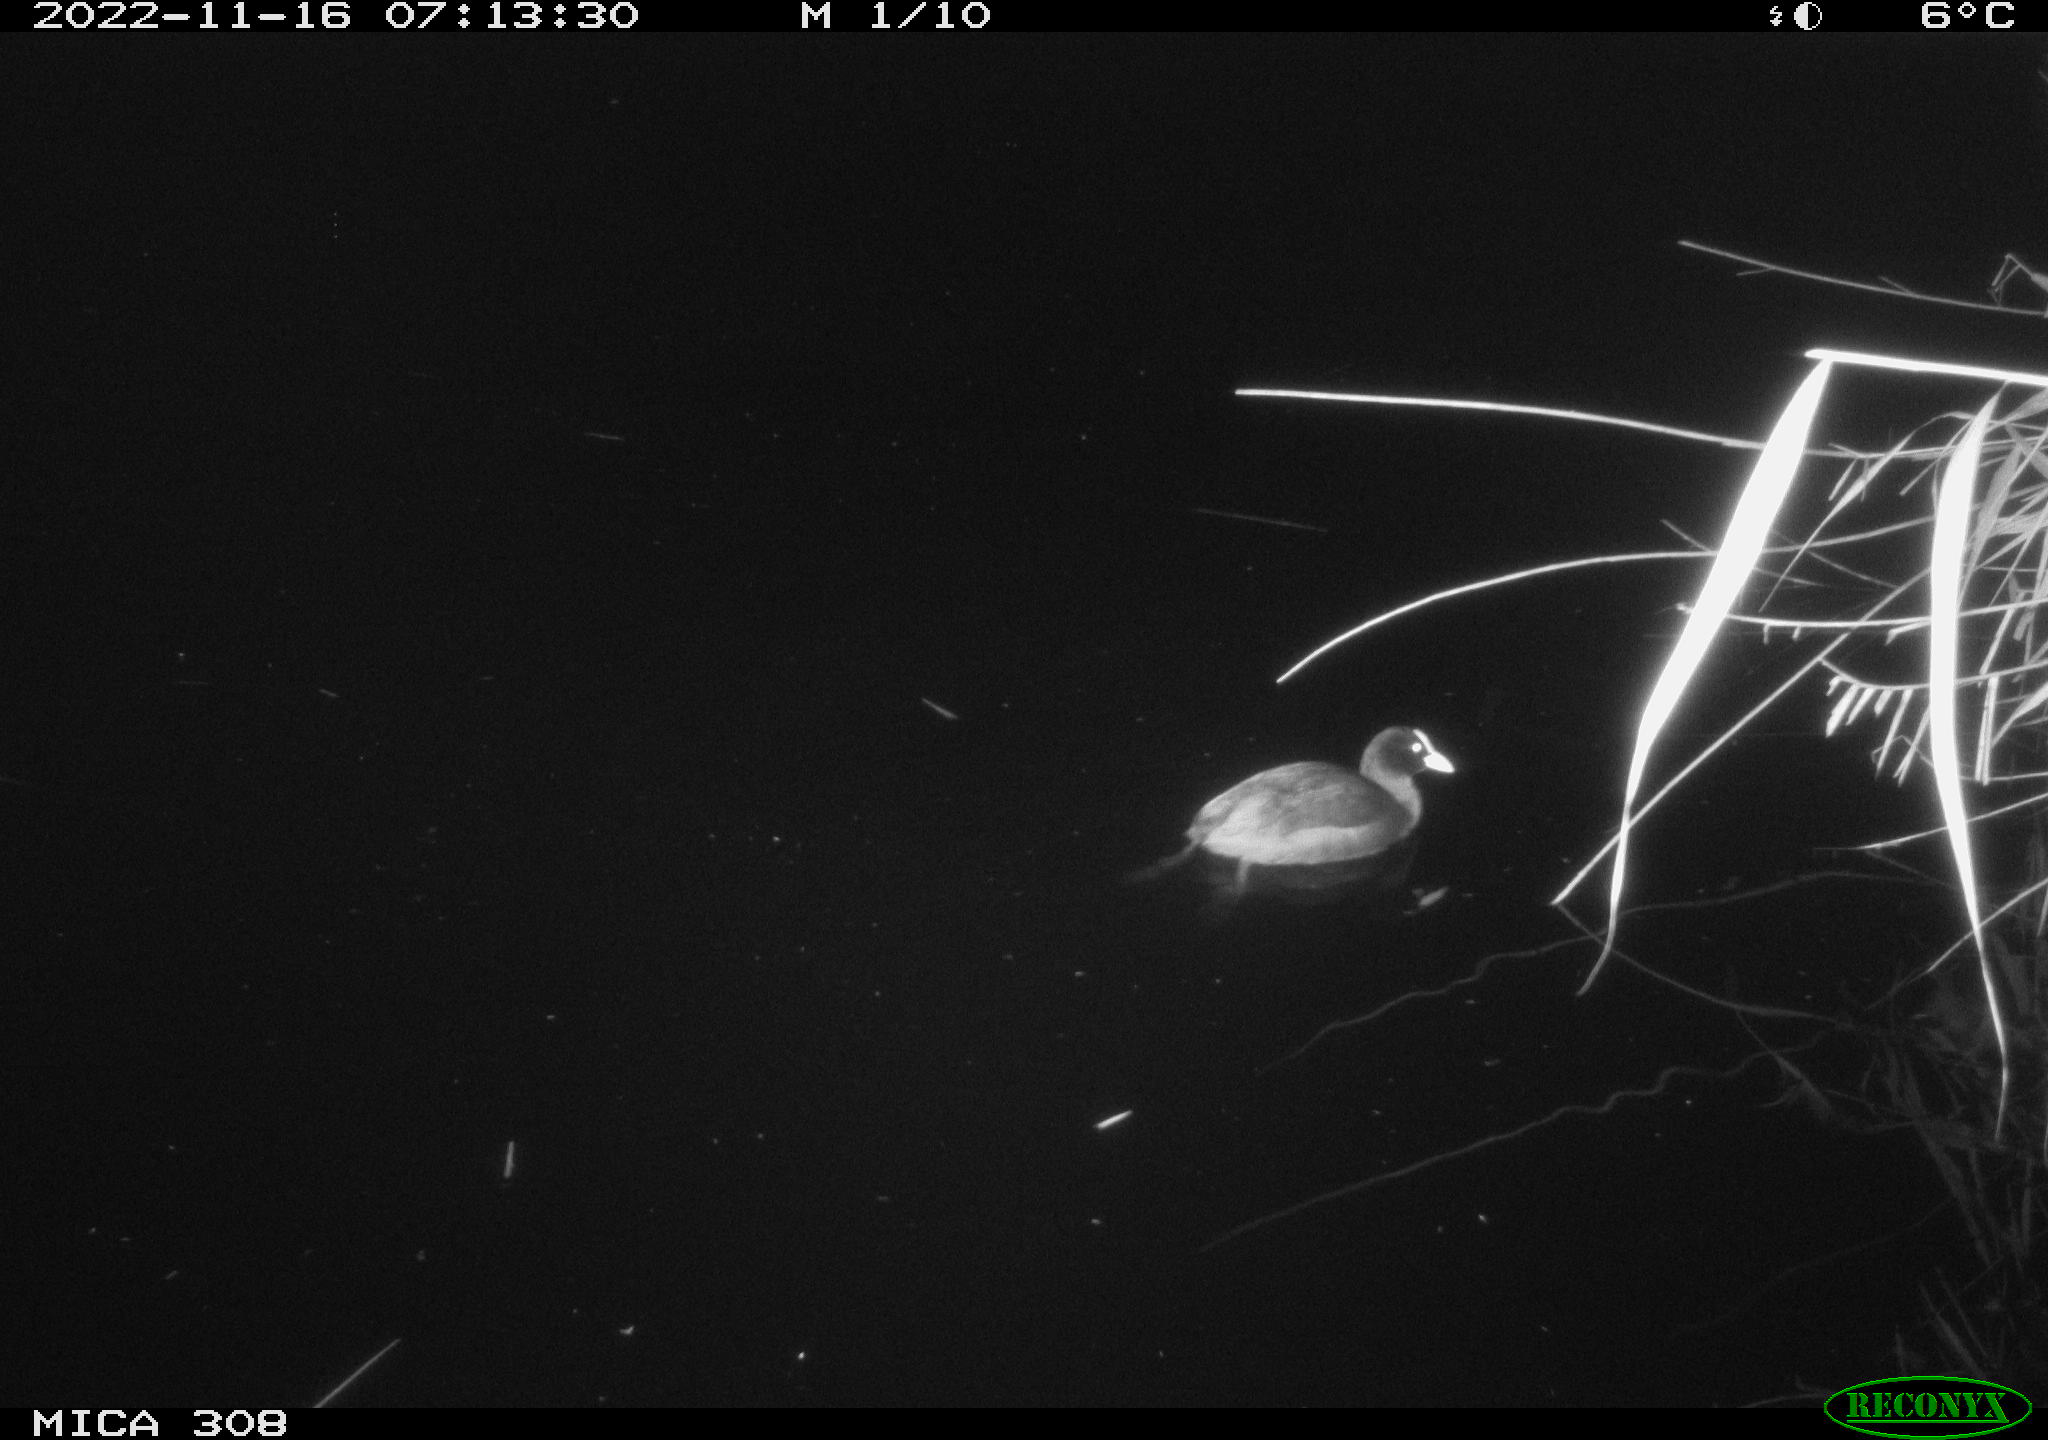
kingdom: Animalia
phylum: Chordata
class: Aves
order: Gruiformes
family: Rallidae
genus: Fulica
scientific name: Fulica atra
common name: Eurasian coot
